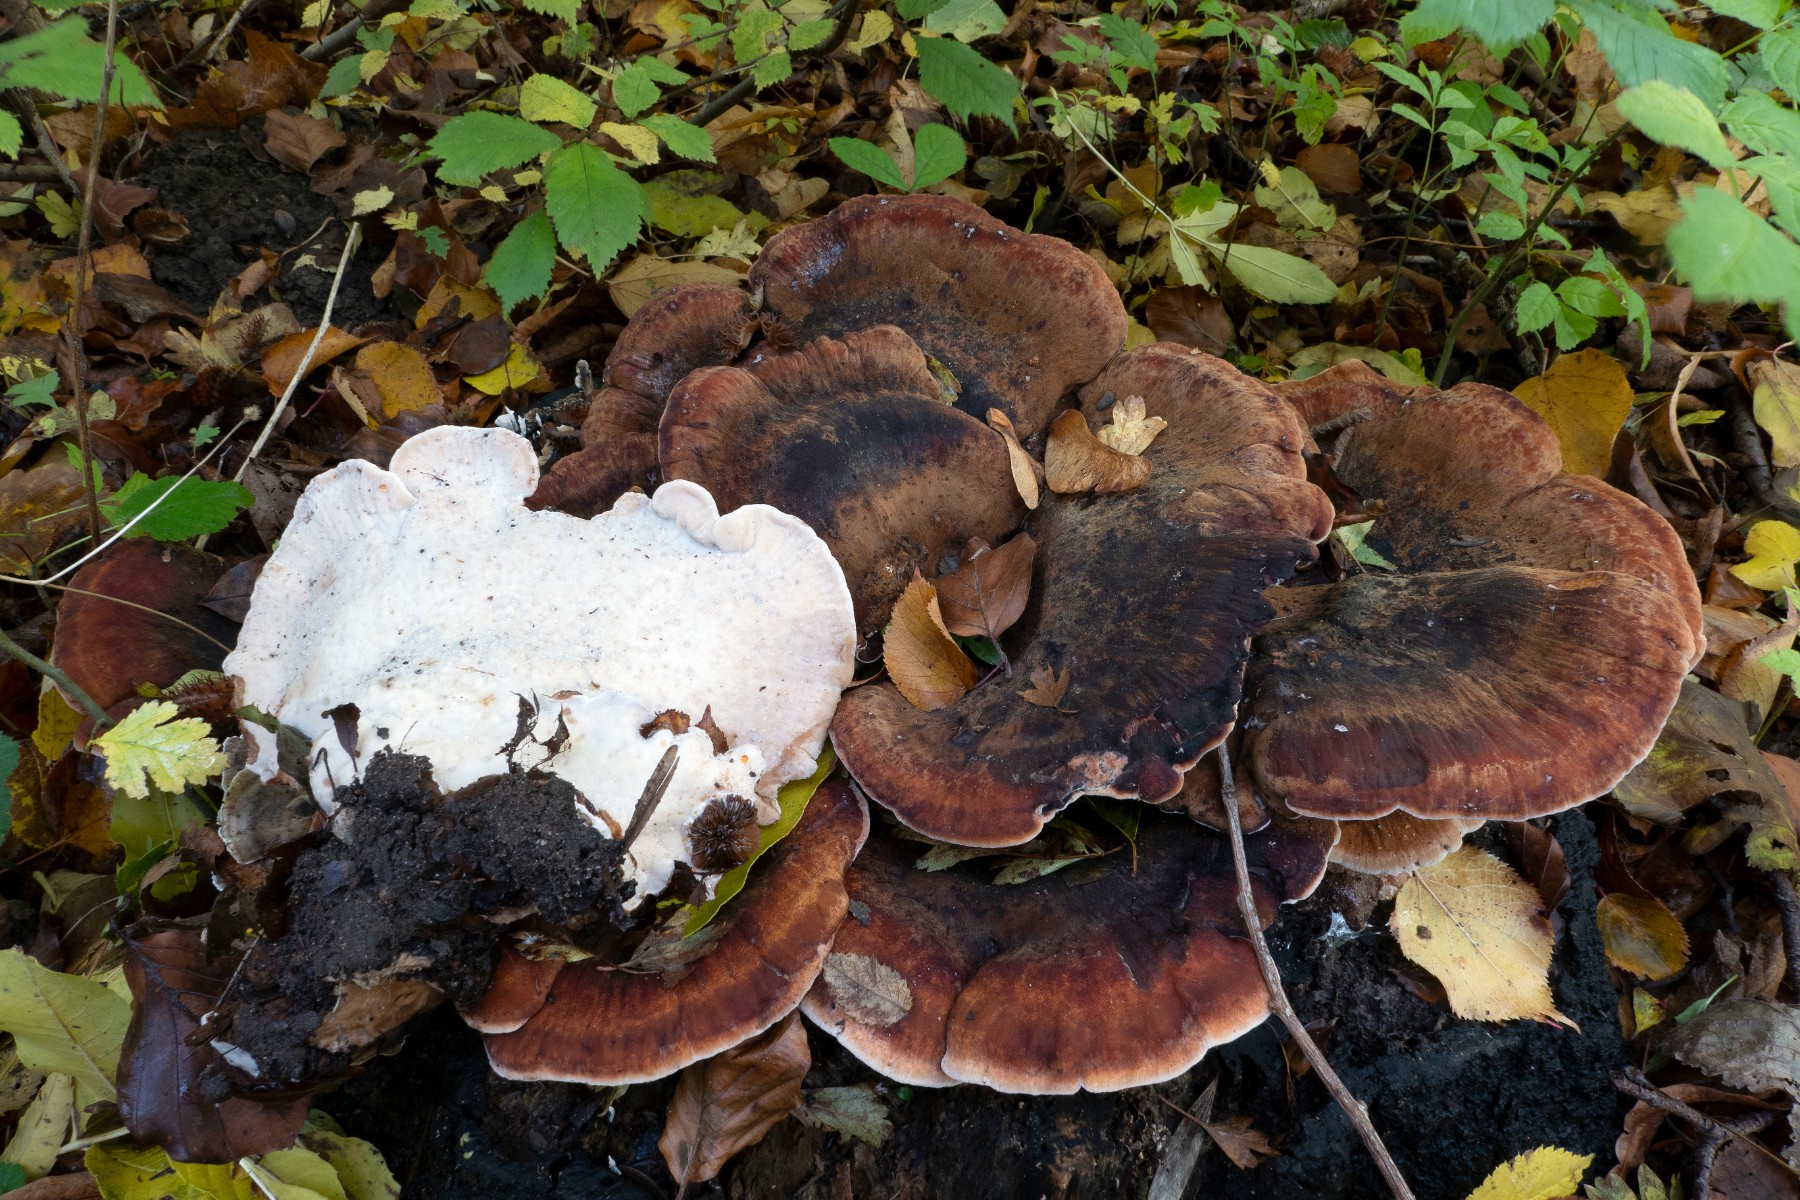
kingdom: Fungi
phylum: Basidiomycota
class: Agaricomycetes
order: Polyporales
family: Ischnodermataceae
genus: Ischnoderma
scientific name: Ischnoderma resinosum
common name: løv-tjæreporesvamp
